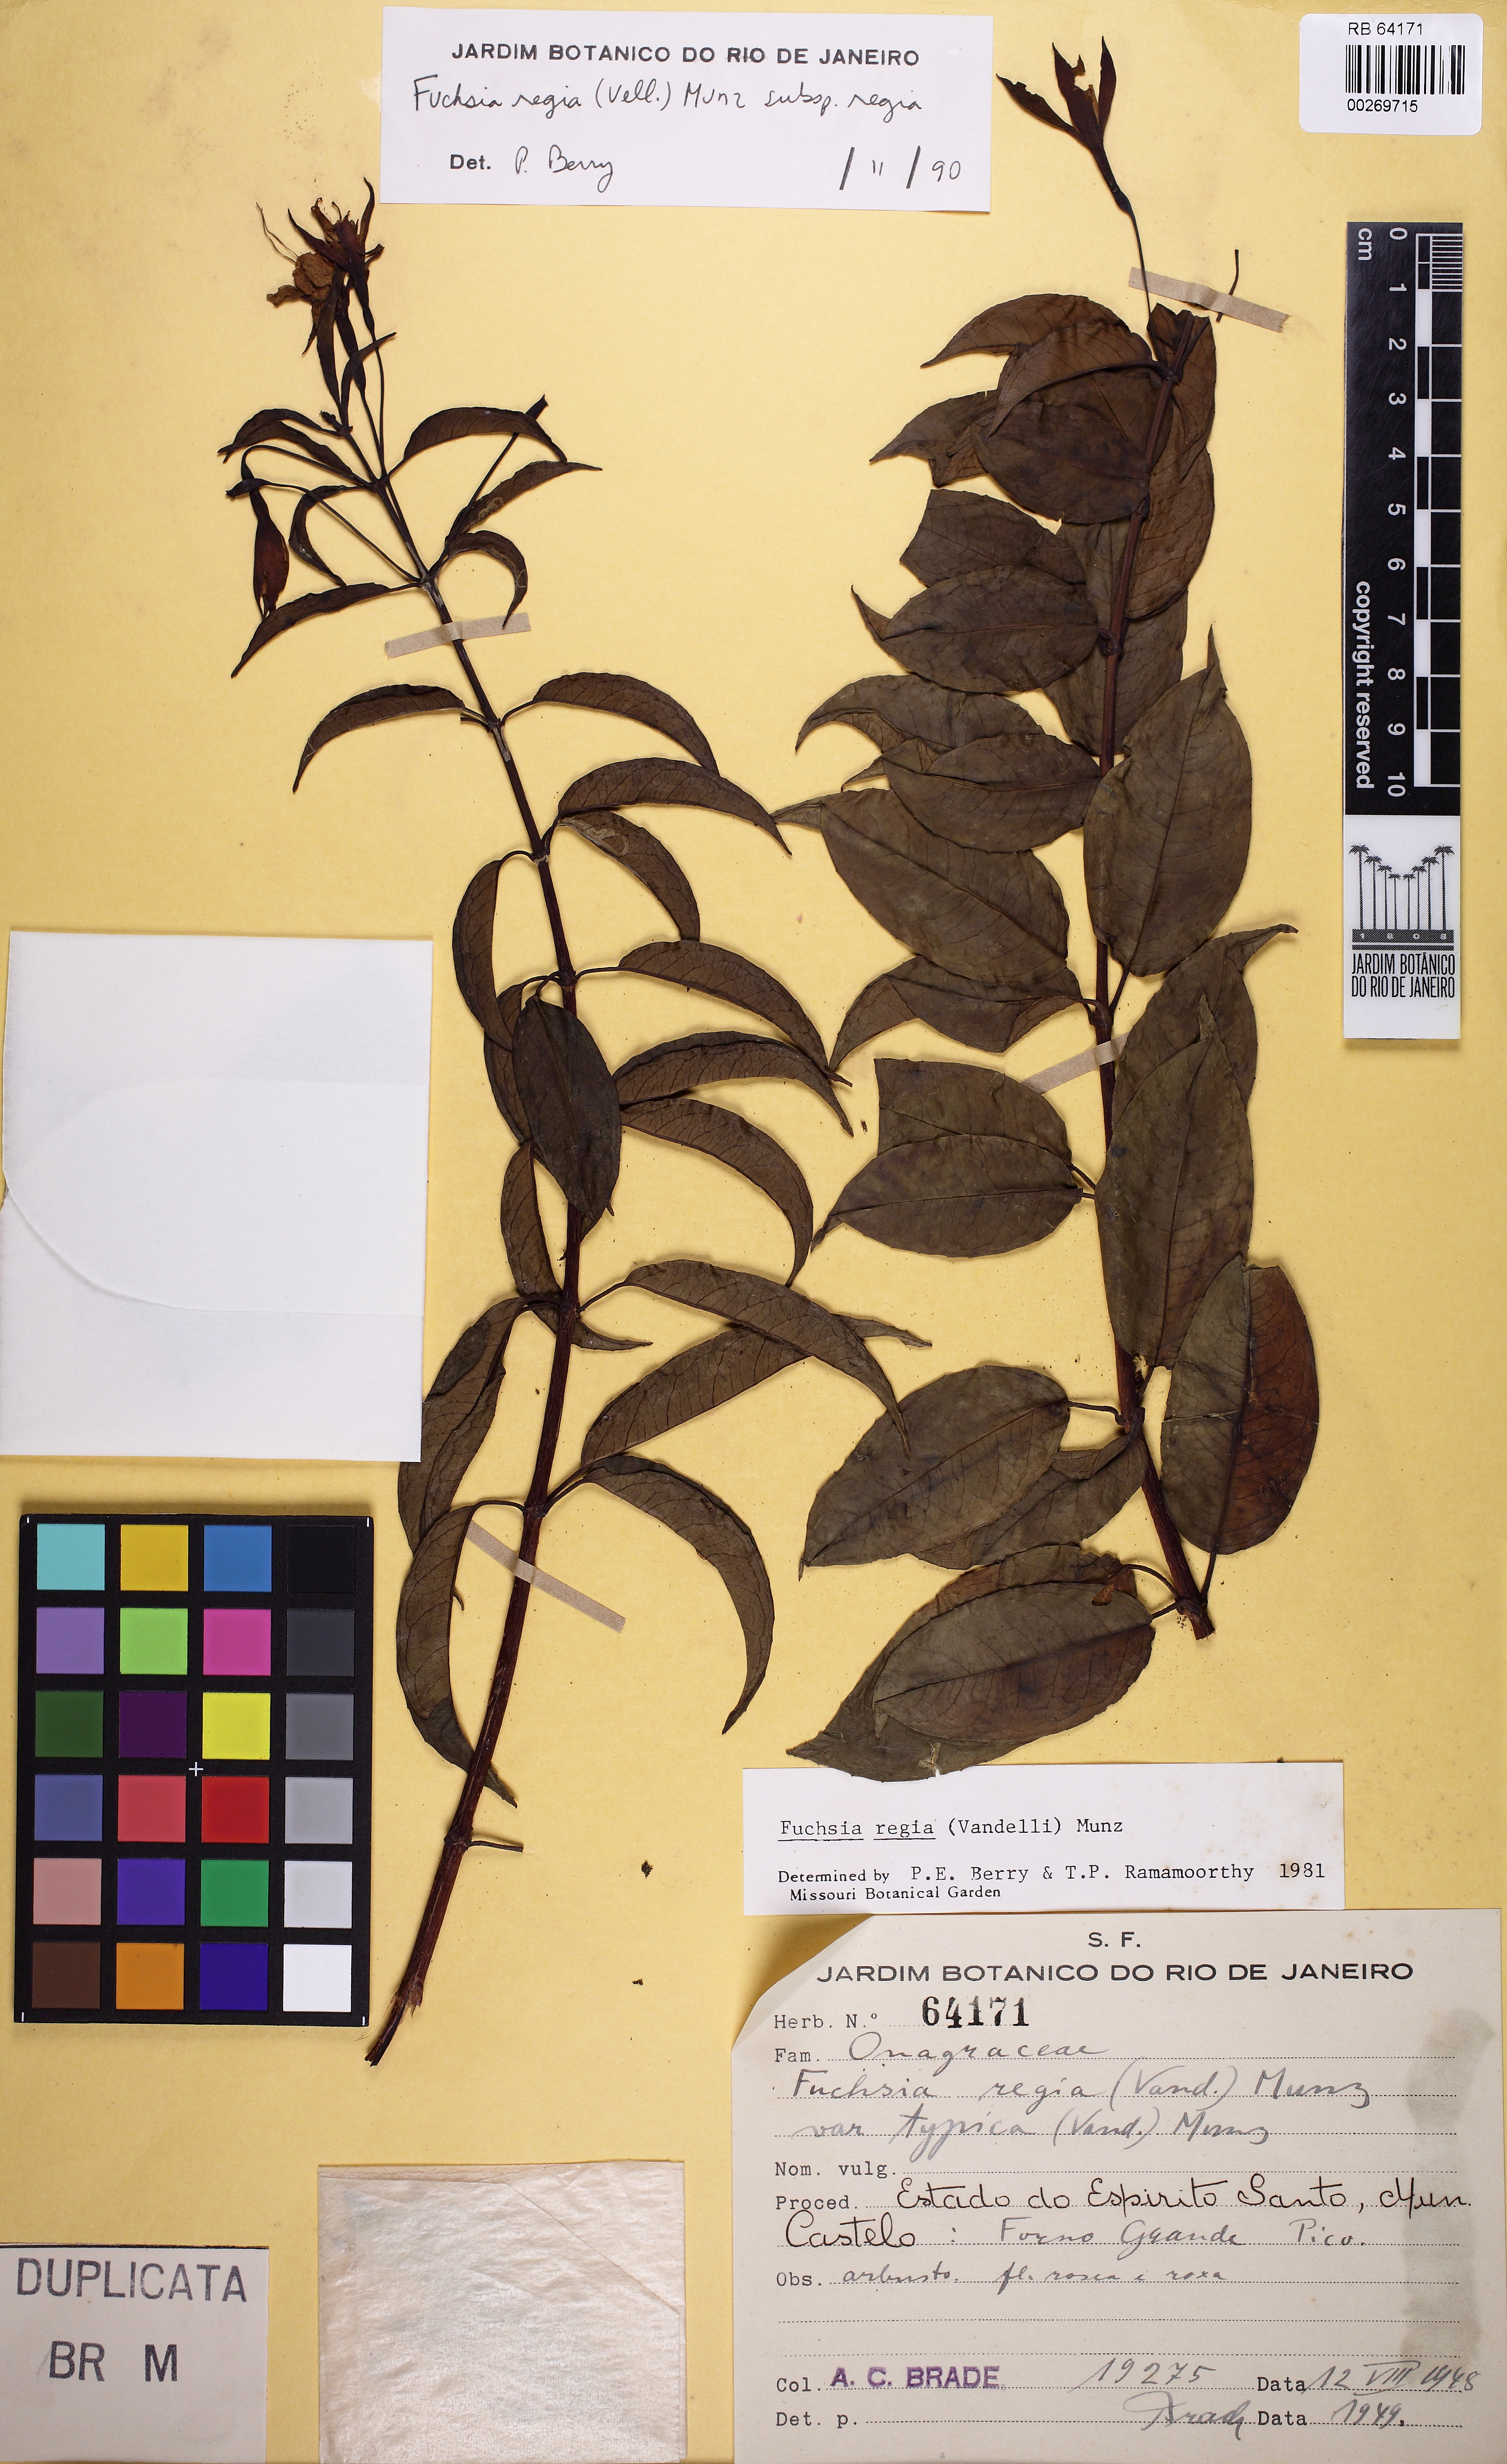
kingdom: Plantae
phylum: Tracheophyta
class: Magnoliopsida
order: Myrtales
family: Onagraceae
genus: Fuchsia
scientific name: Fuchsia regia
